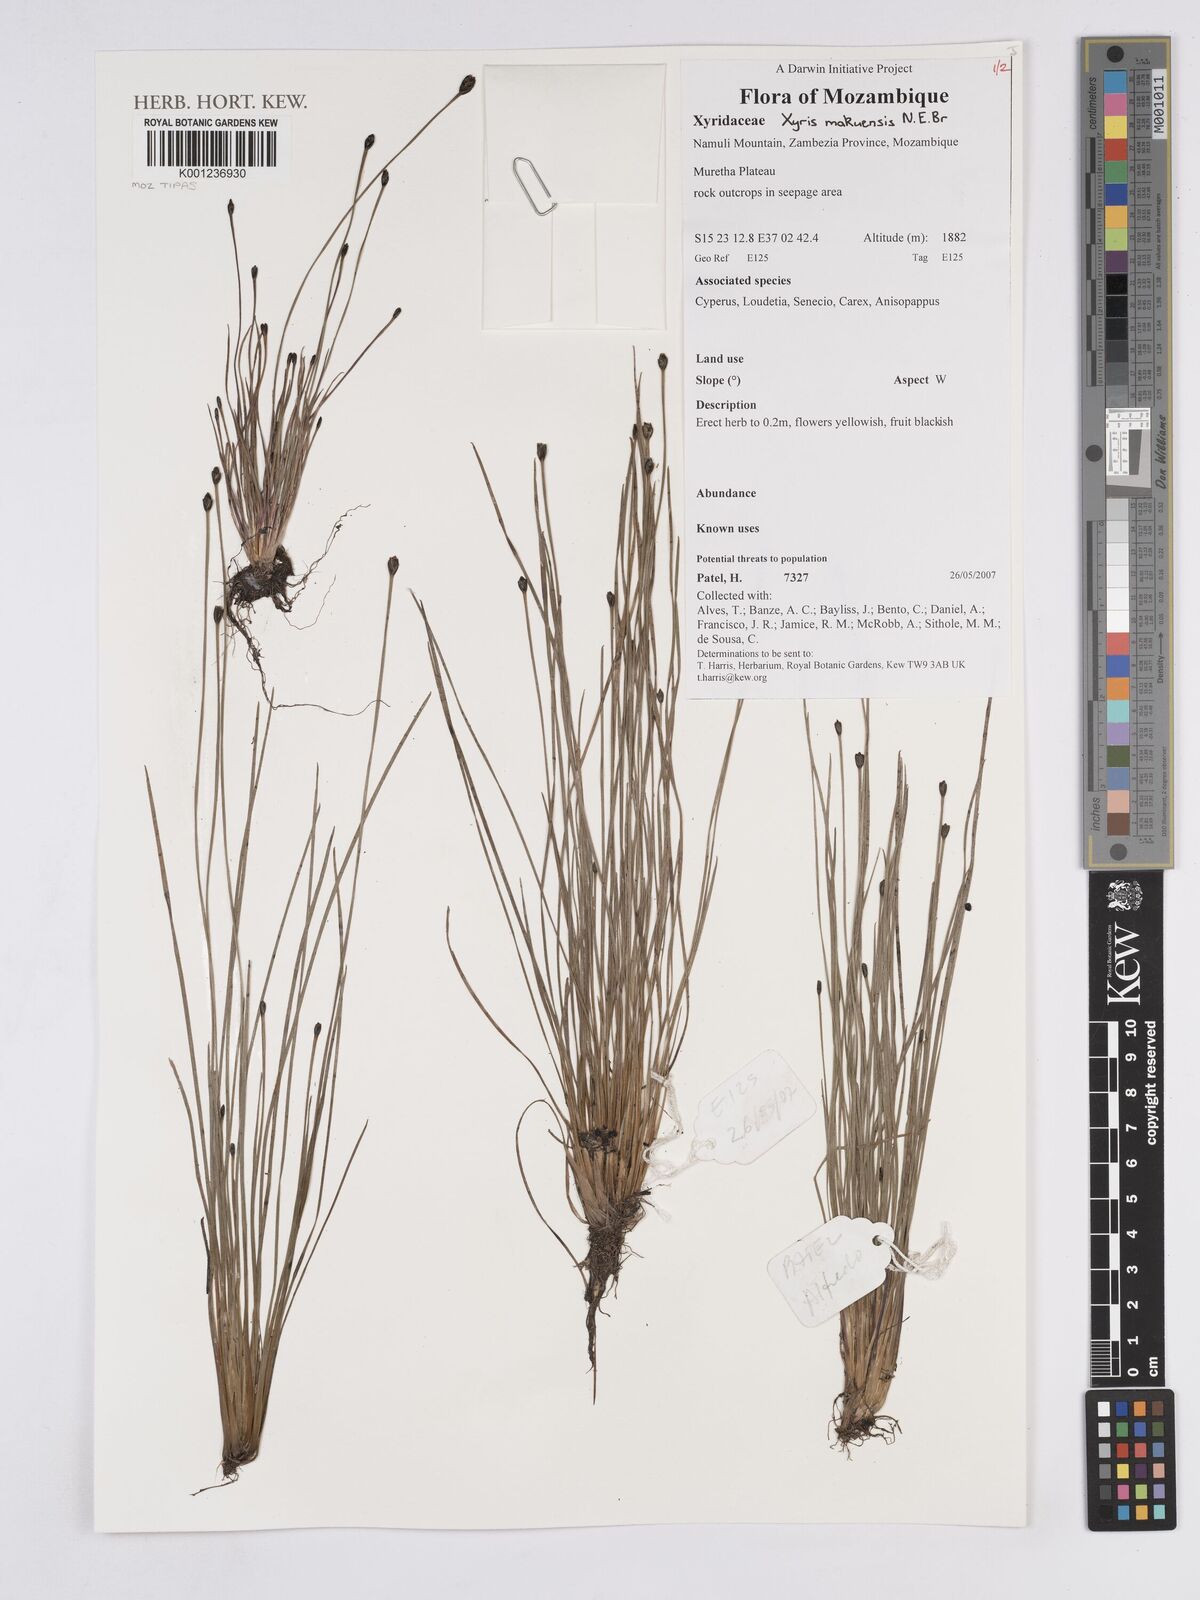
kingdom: Plantae
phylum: Tracheophyta
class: Liliopsida
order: Poales
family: Xyridaceae
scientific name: Xyridaceae
